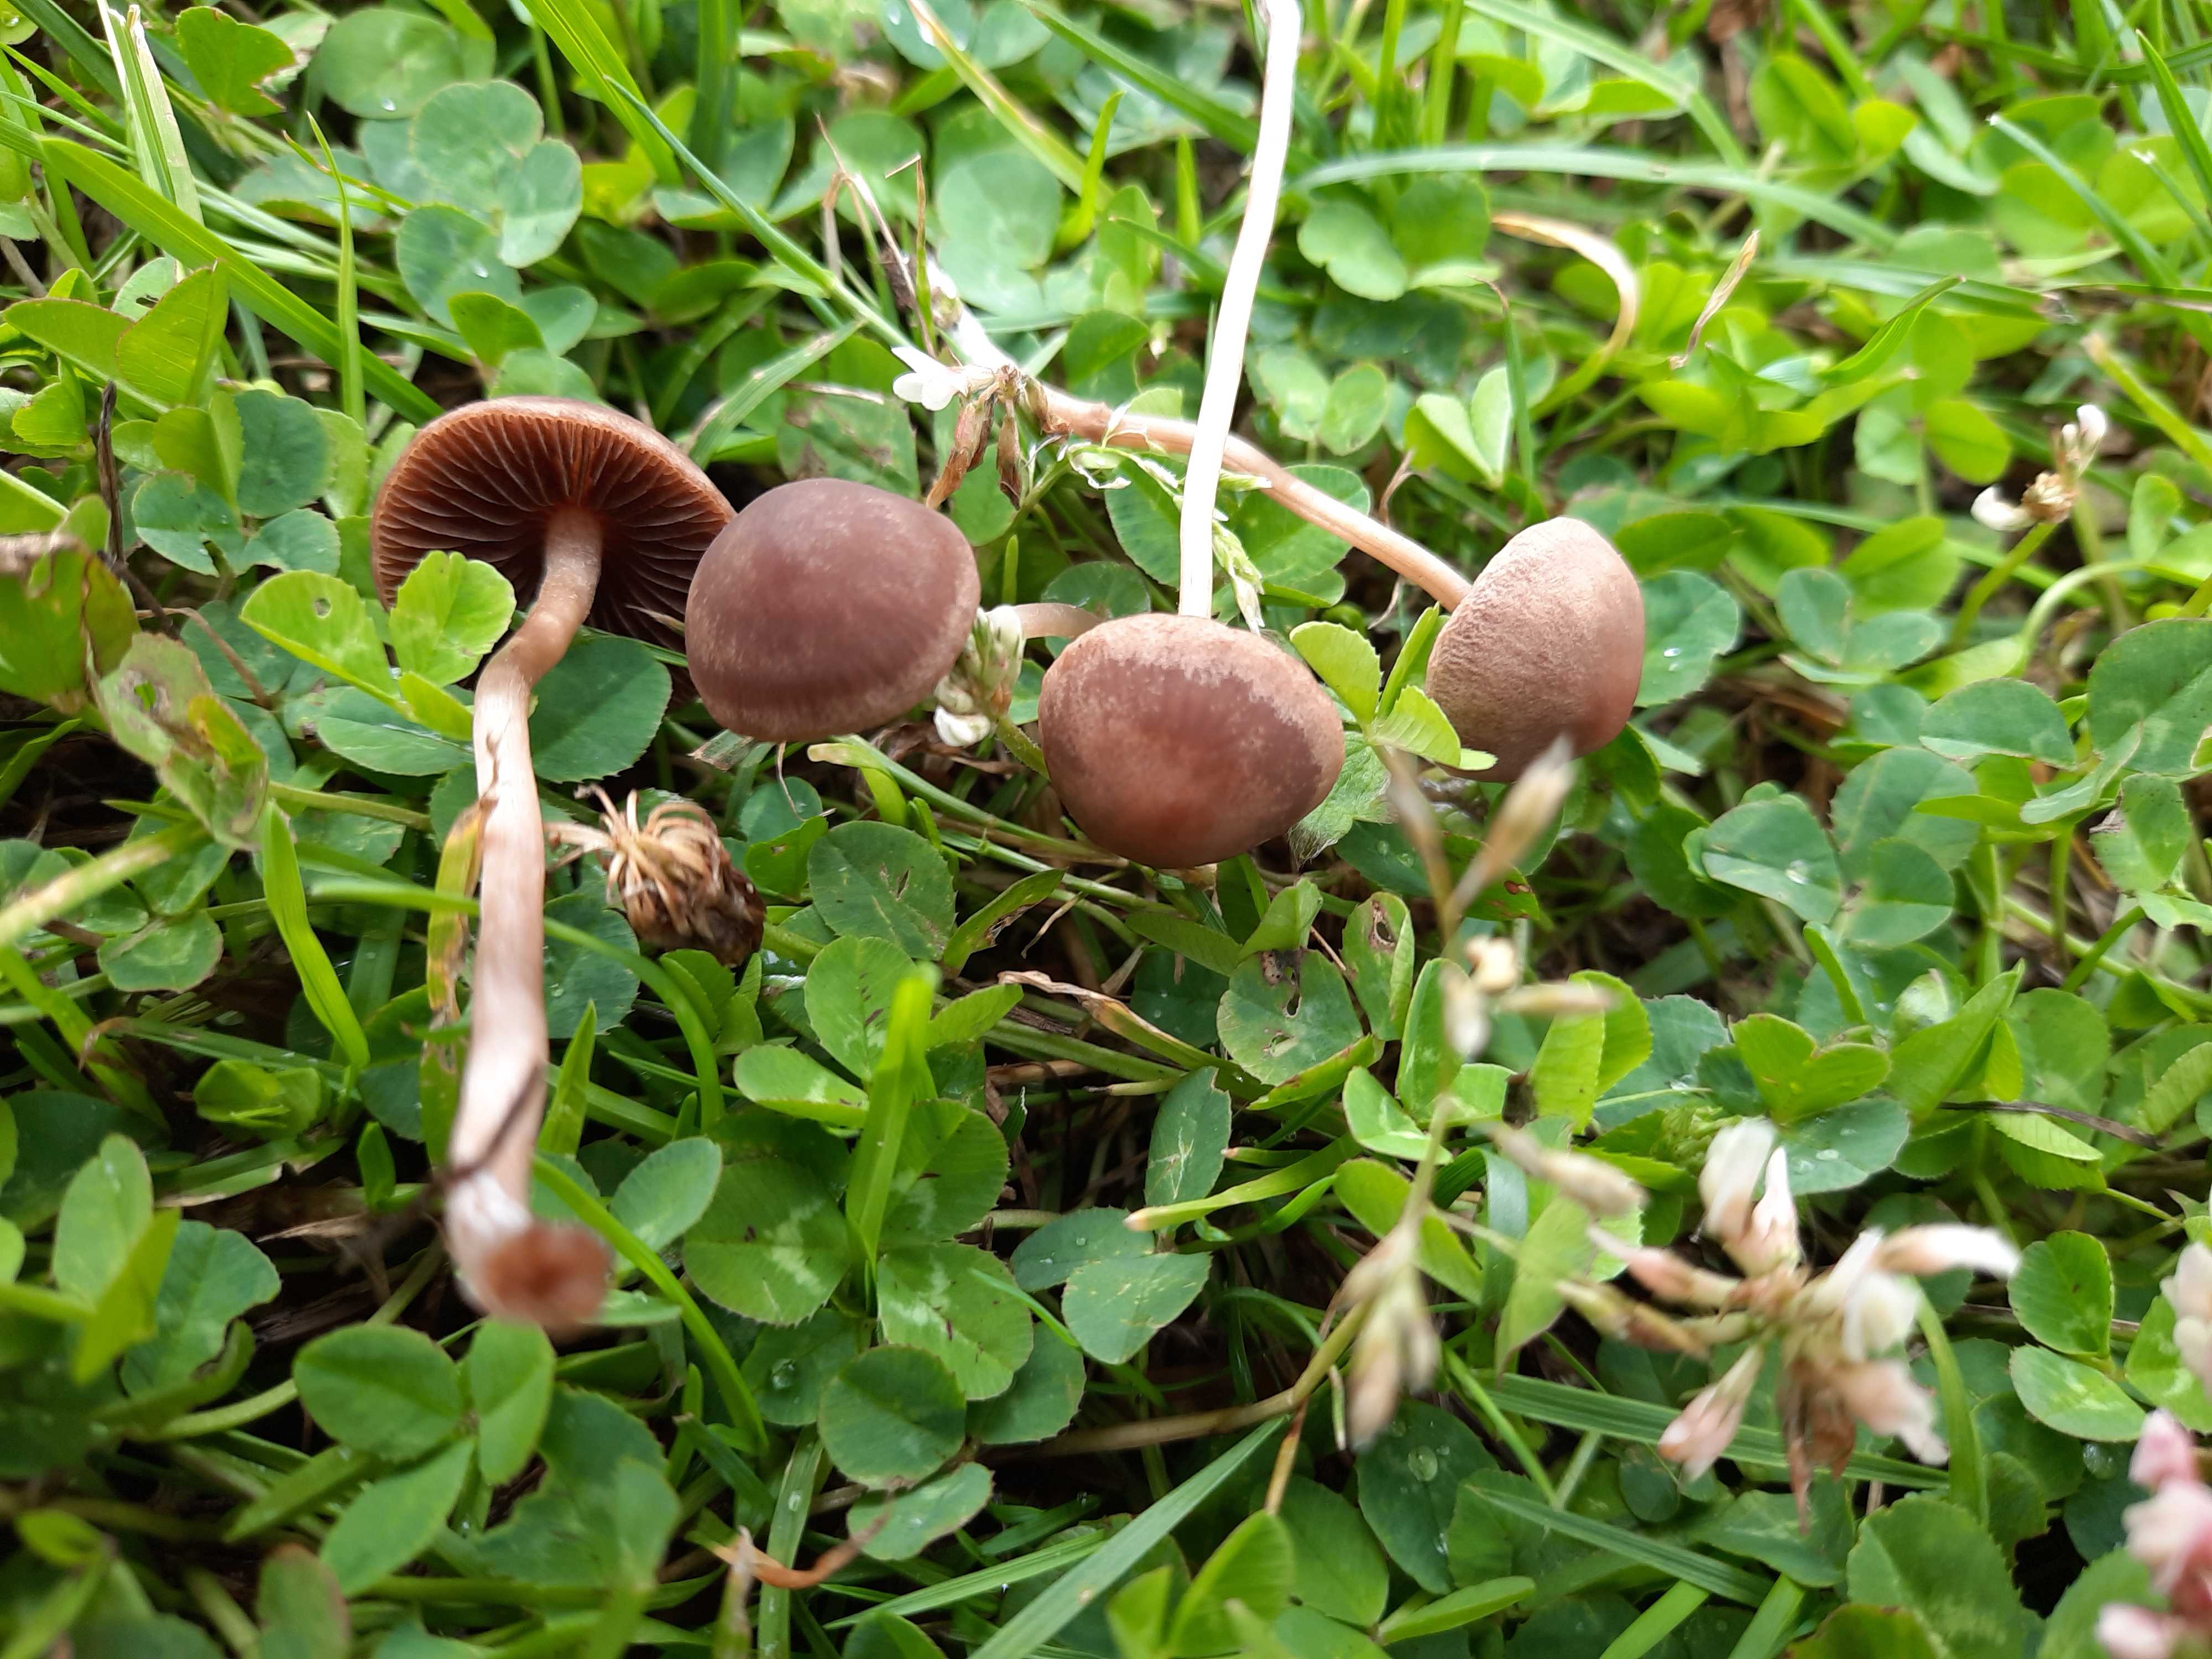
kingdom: Fungi
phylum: Basidiomycota
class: Agaricomycetes
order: Agaricales
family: Bolbitiaceae
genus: Panaeolina
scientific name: Panaeolina foenisecii
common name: høslætsvamp
